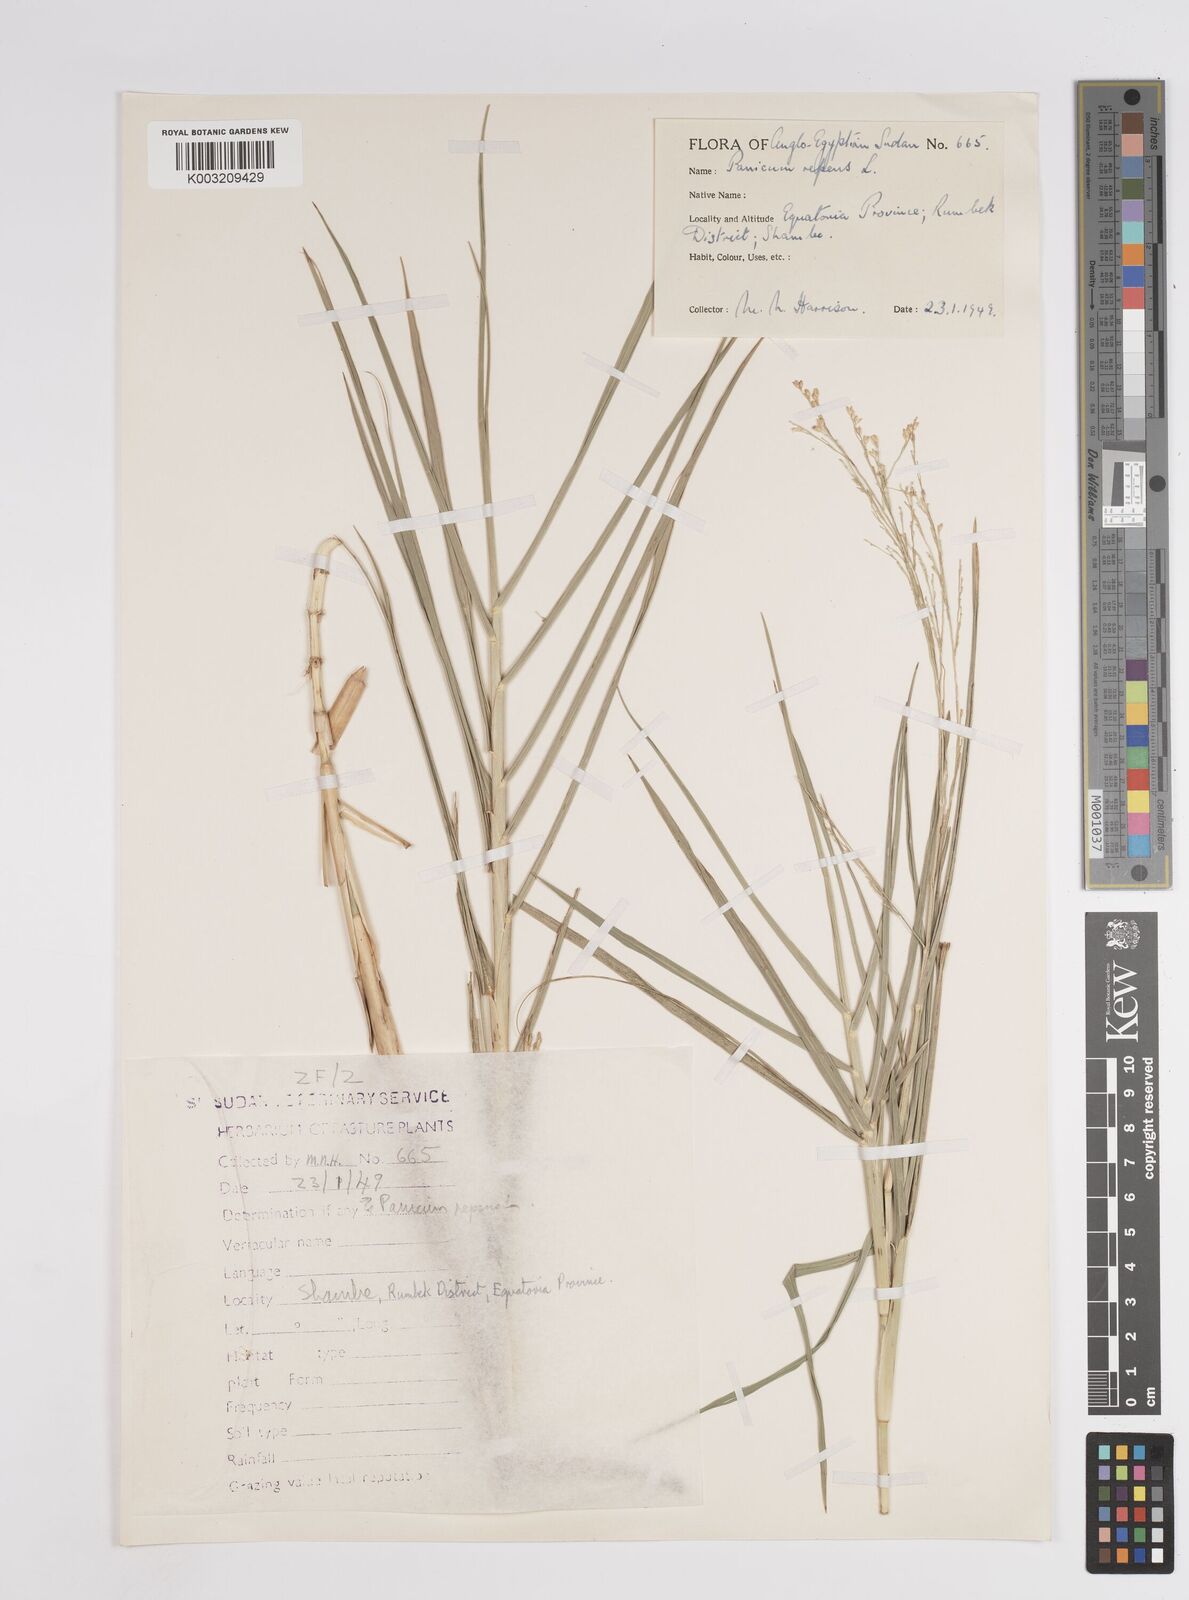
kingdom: Plantae
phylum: Tracheophyta
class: Liliopsida
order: Poales
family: Poaceae
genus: Panicum
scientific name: Panicum repens
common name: Torpedo grass
